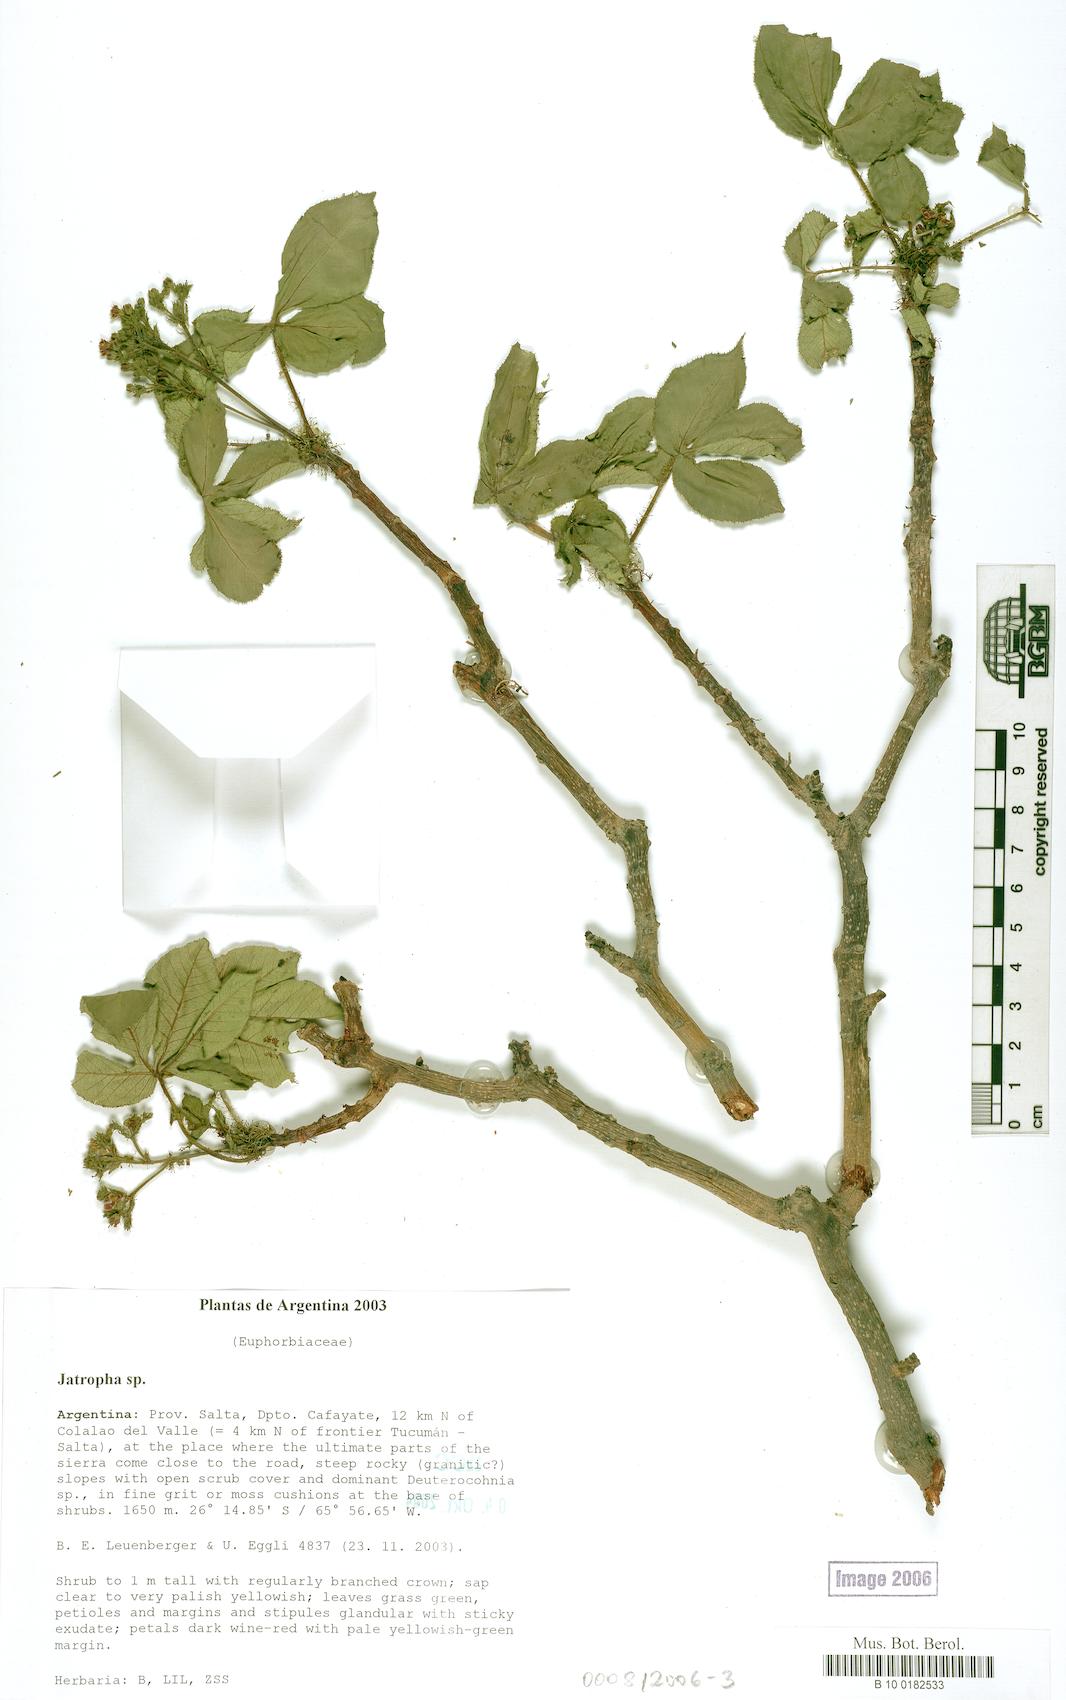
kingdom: Plantae
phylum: Tracheophyta
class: Magnoliopsida
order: Malpighiales
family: Euphorbiaceae
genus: Jatropha
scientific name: Jatropha gossypiifolia
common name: Bellyache bush
